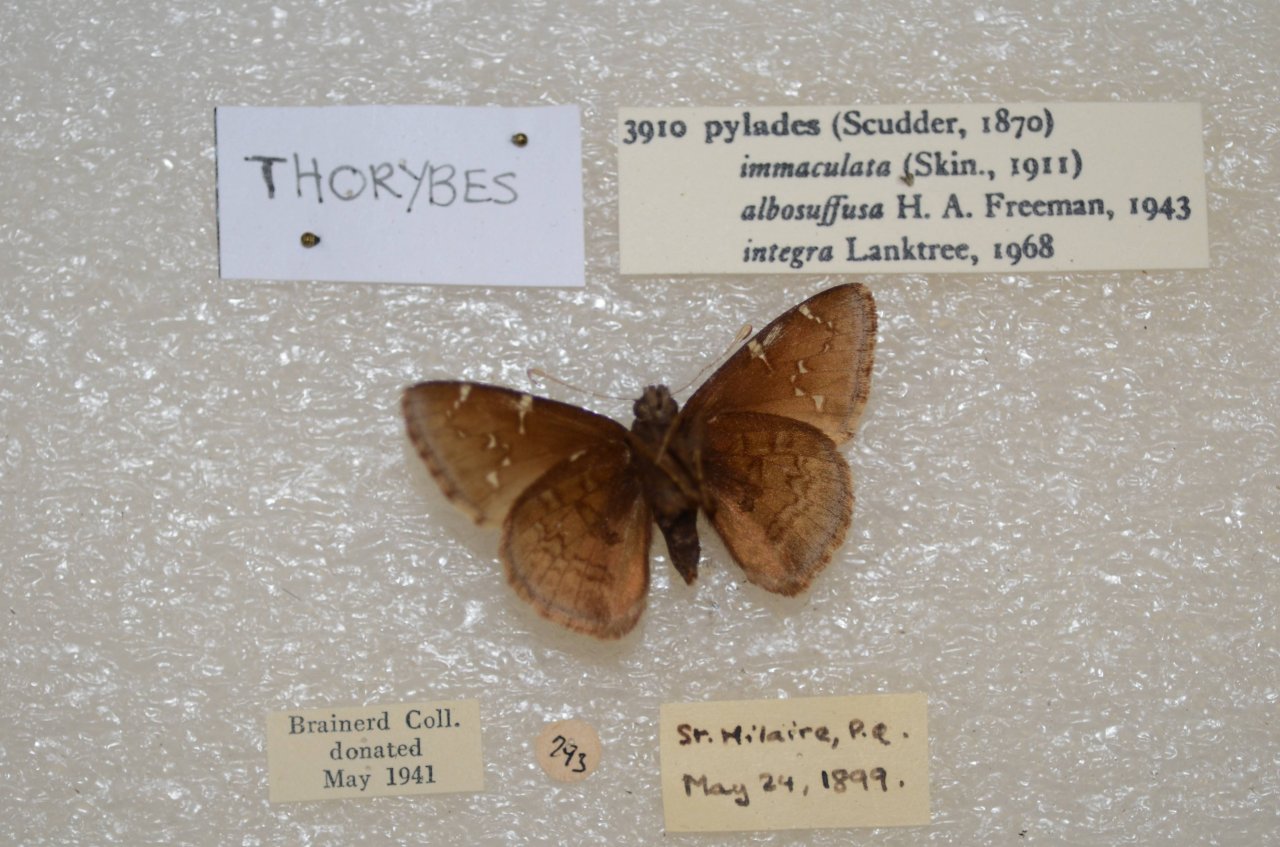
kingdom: Animalia
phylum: Arthropoda
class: Insecta
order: Lepidoptera
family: Hesperiidae
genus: Autochton
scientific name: Autochton
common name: Northern Cloudywing
